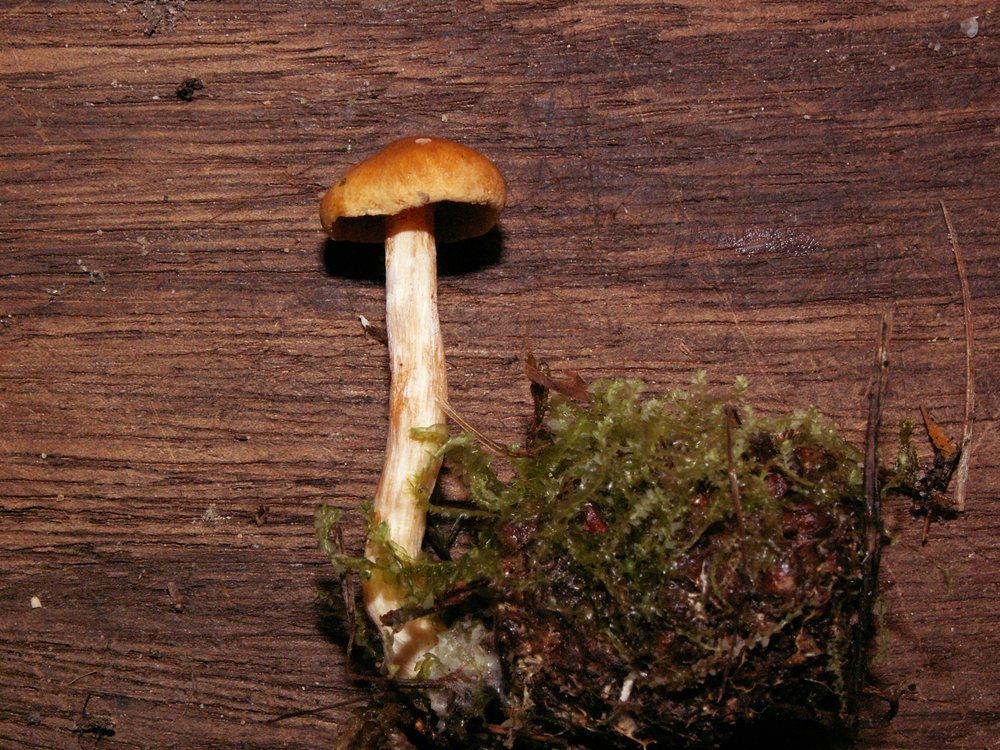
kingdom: Fungi
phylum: Basidiomycota
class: Agaricomycetes
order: Agaricales
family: Hymenogastraceae
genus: Gymnopilus
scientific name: Gymnopilus penetrans
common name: plettet flammehat
